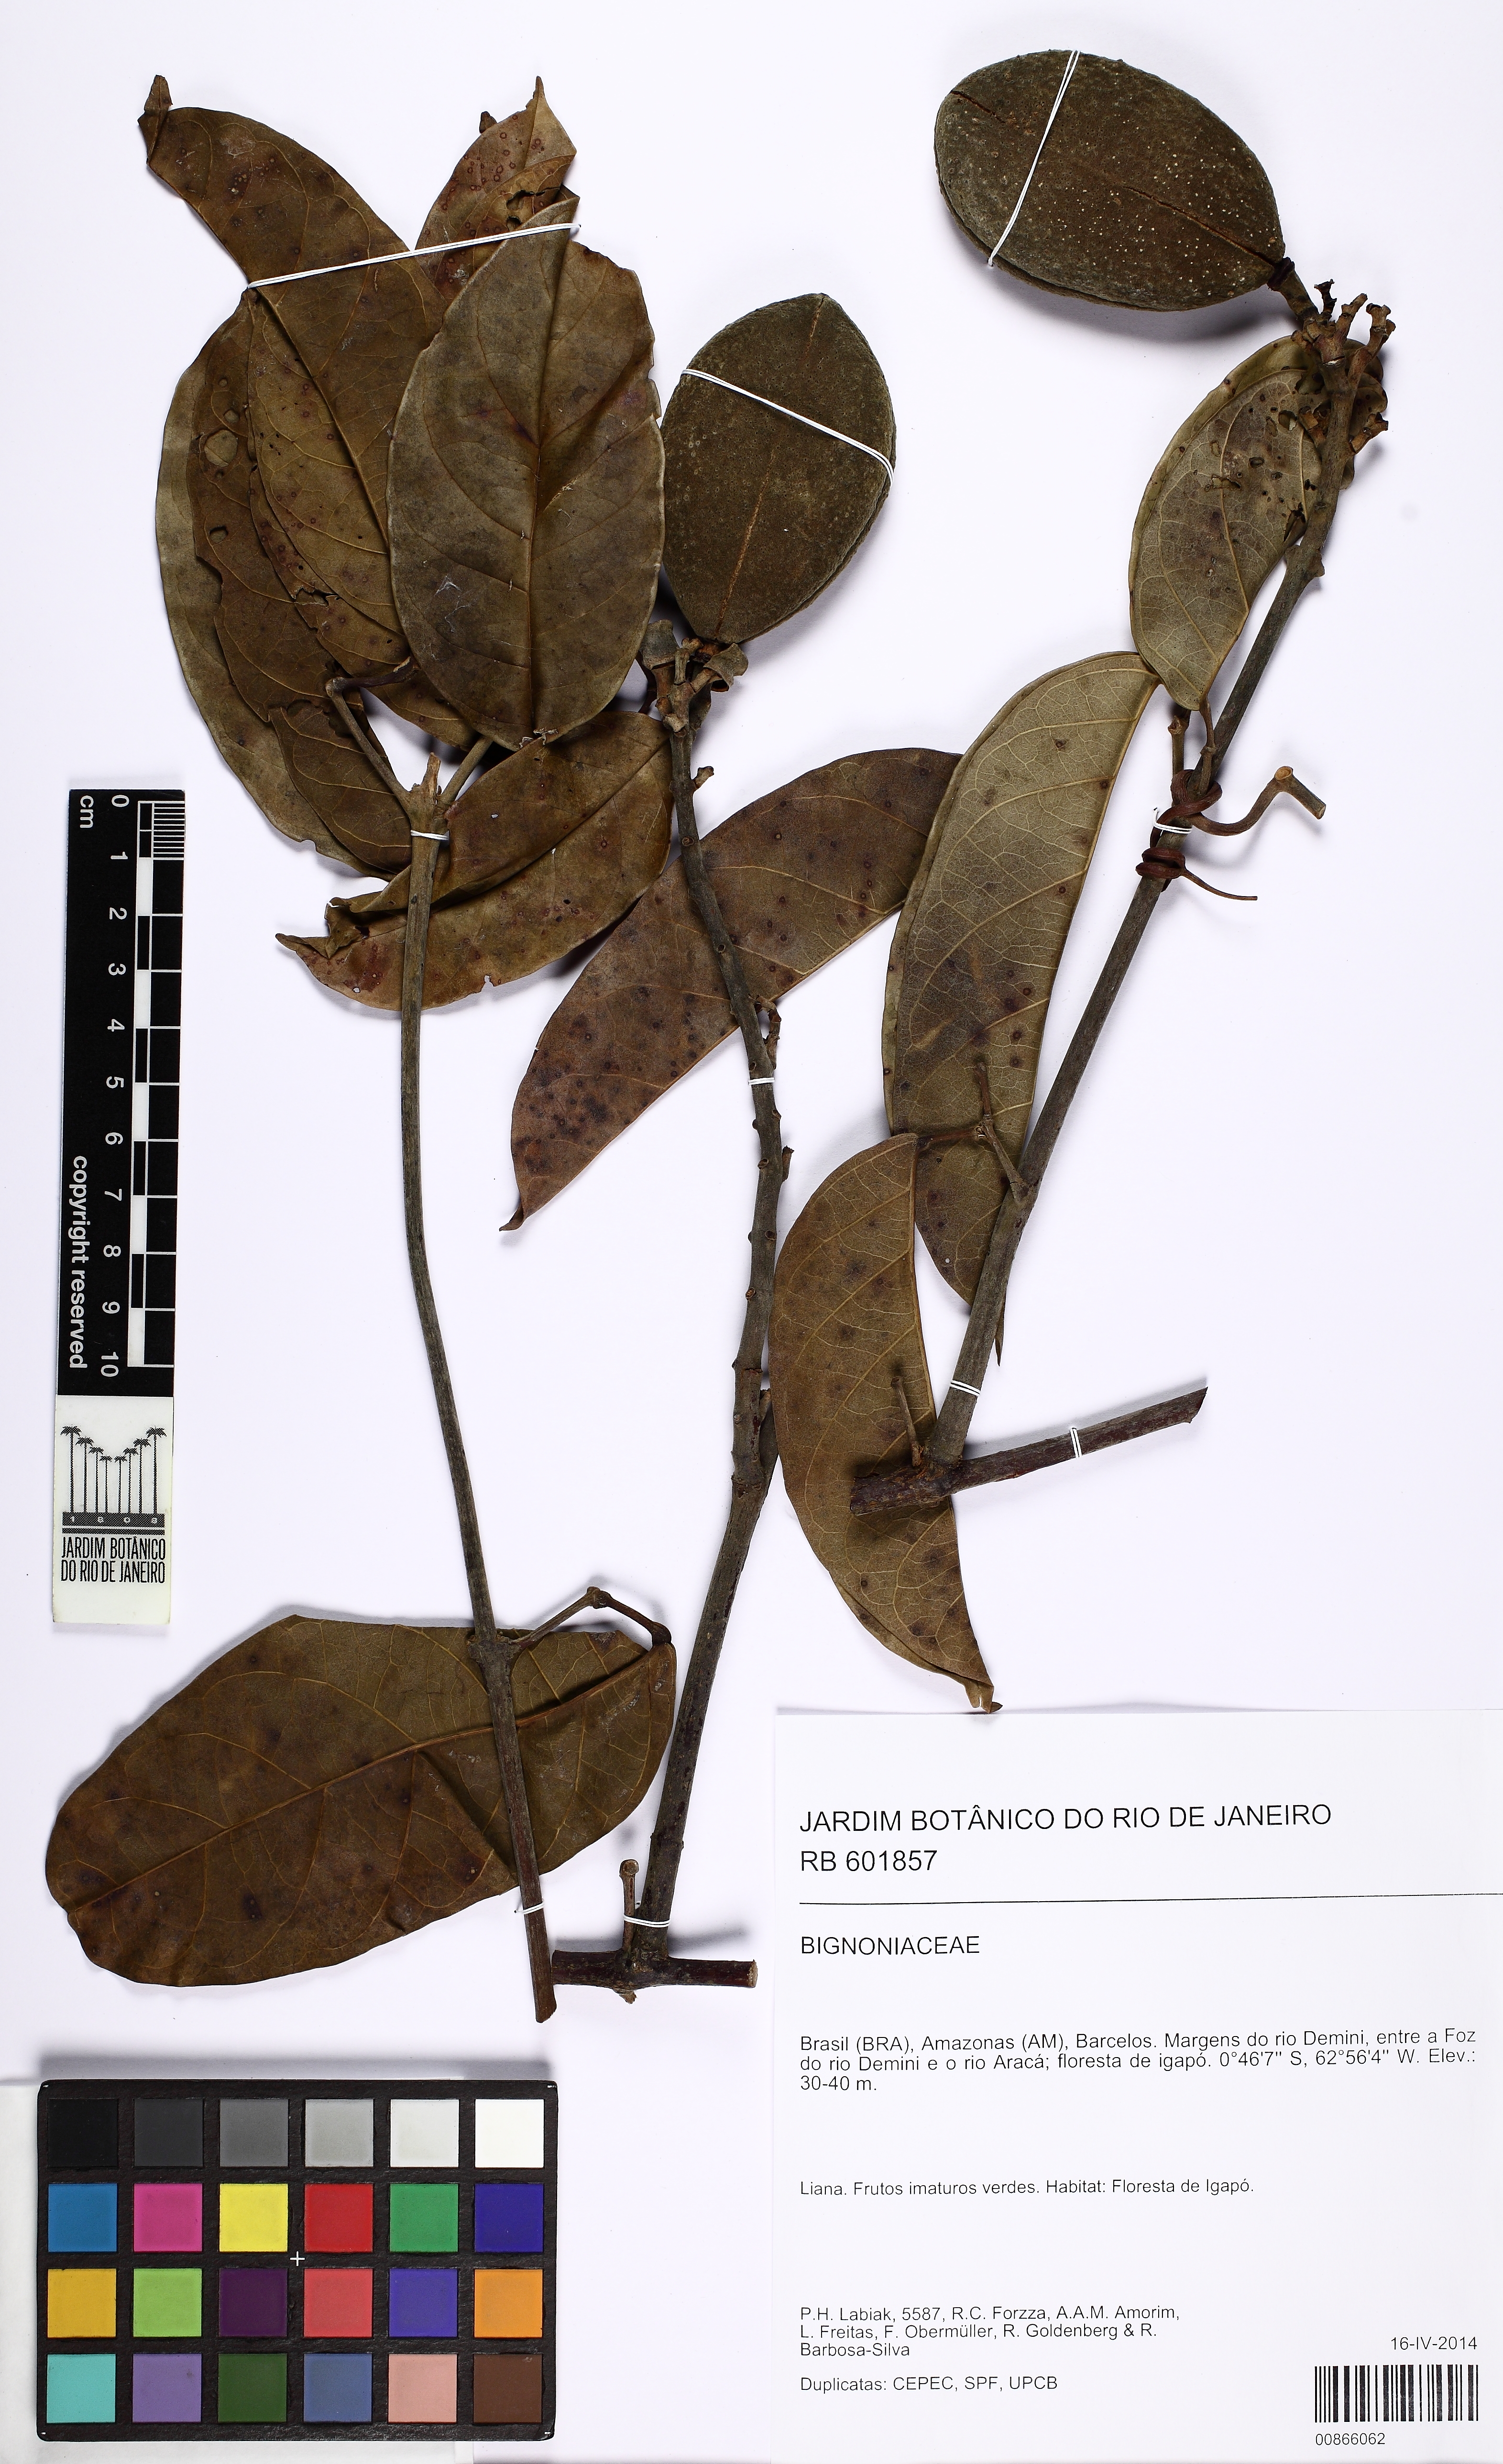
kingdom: Plantae
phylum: Tracheophyta
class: Magnoliopsida
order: Lamiales
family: Bignoniaceae
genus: Anemopaegma
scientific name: Anemopaegma parkeri
